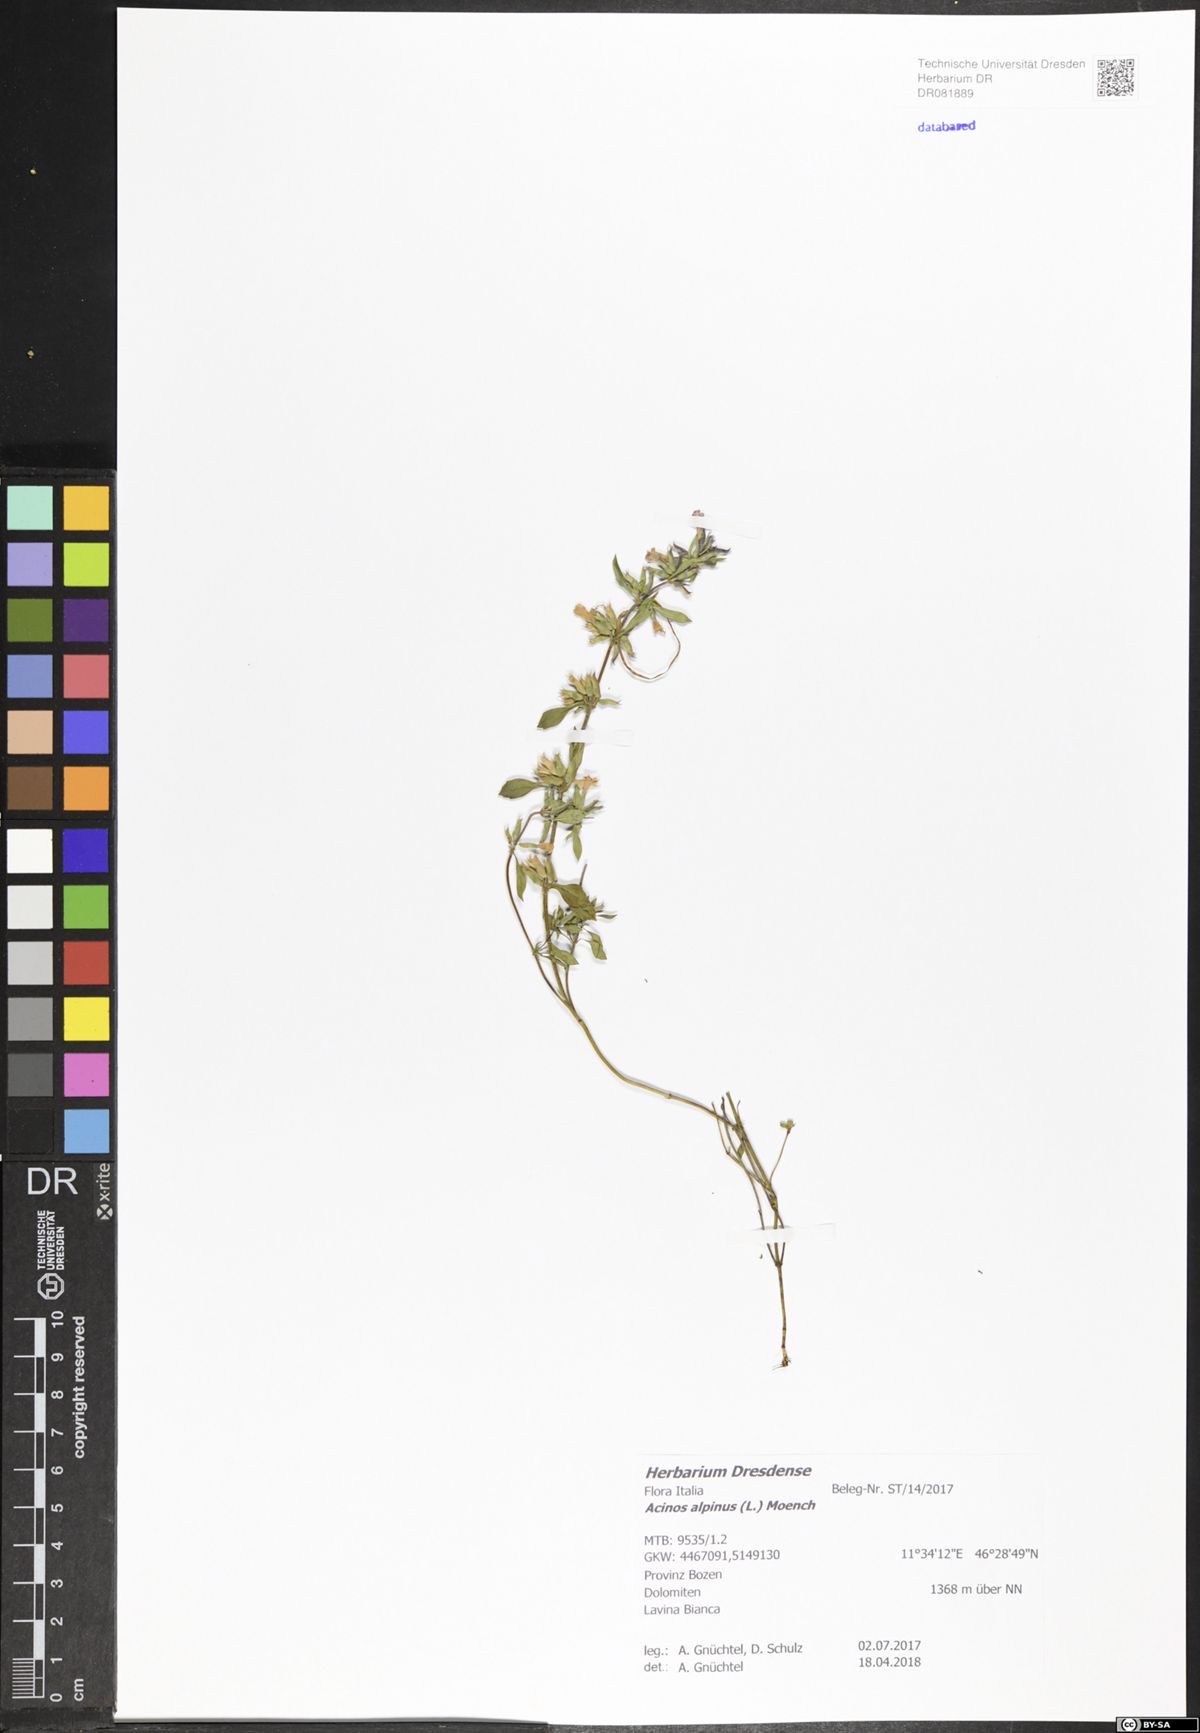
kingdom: Plantae
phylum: Tracheophyta
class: Magnoliopsida
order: Lamiales
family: Lamiaceae
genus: Clinopodium
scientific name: Clinopodium alpinum
